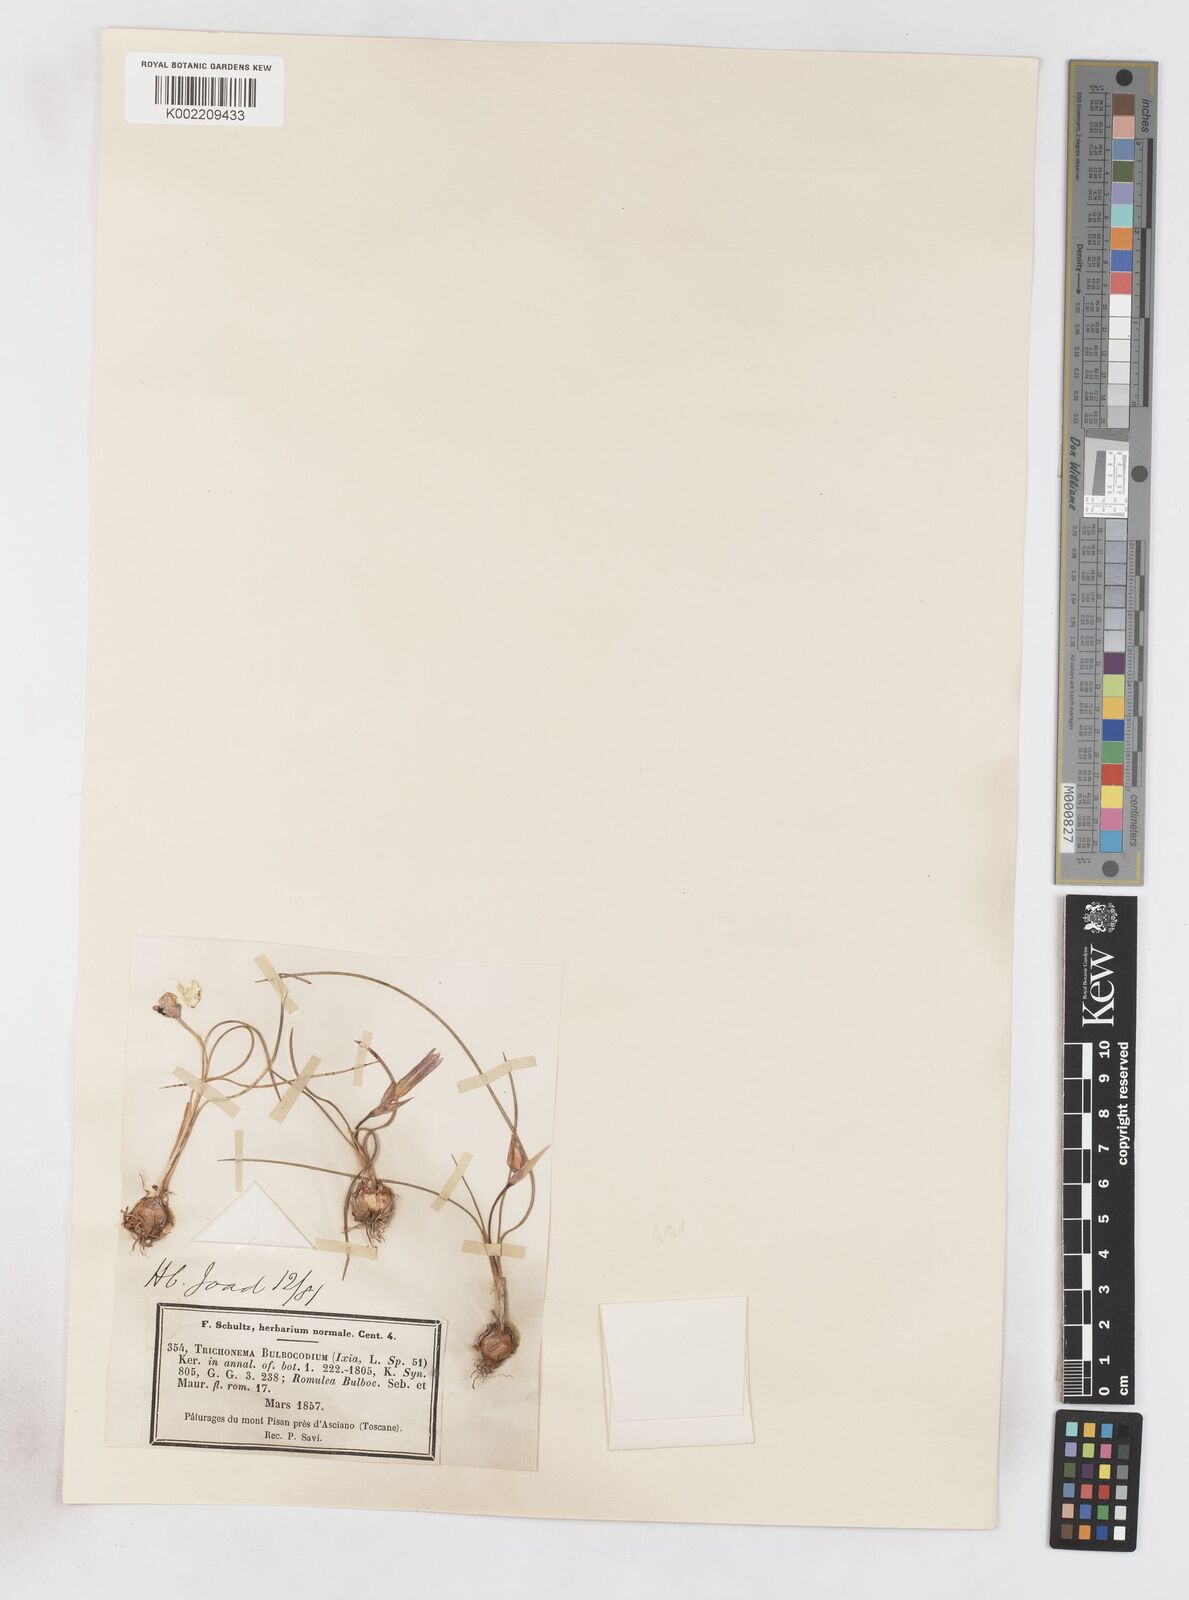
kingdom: Plantae
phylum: Tracheophyta
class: Liliopsida
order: Asparagales
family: Iridaceae
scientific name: Iridaceae
